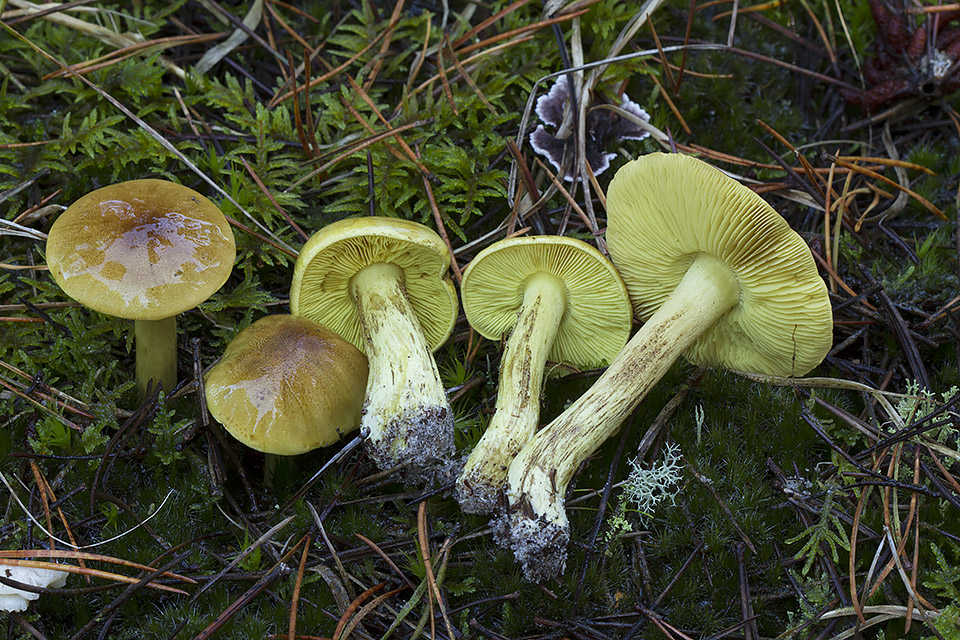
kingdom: Fungi
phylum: Basidiomycota
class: Agaricomycetes
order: Agaricales
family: Tricholomataceae
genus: Tricholoma
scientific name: Tricholoma equestre
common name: ægte ridderhat
